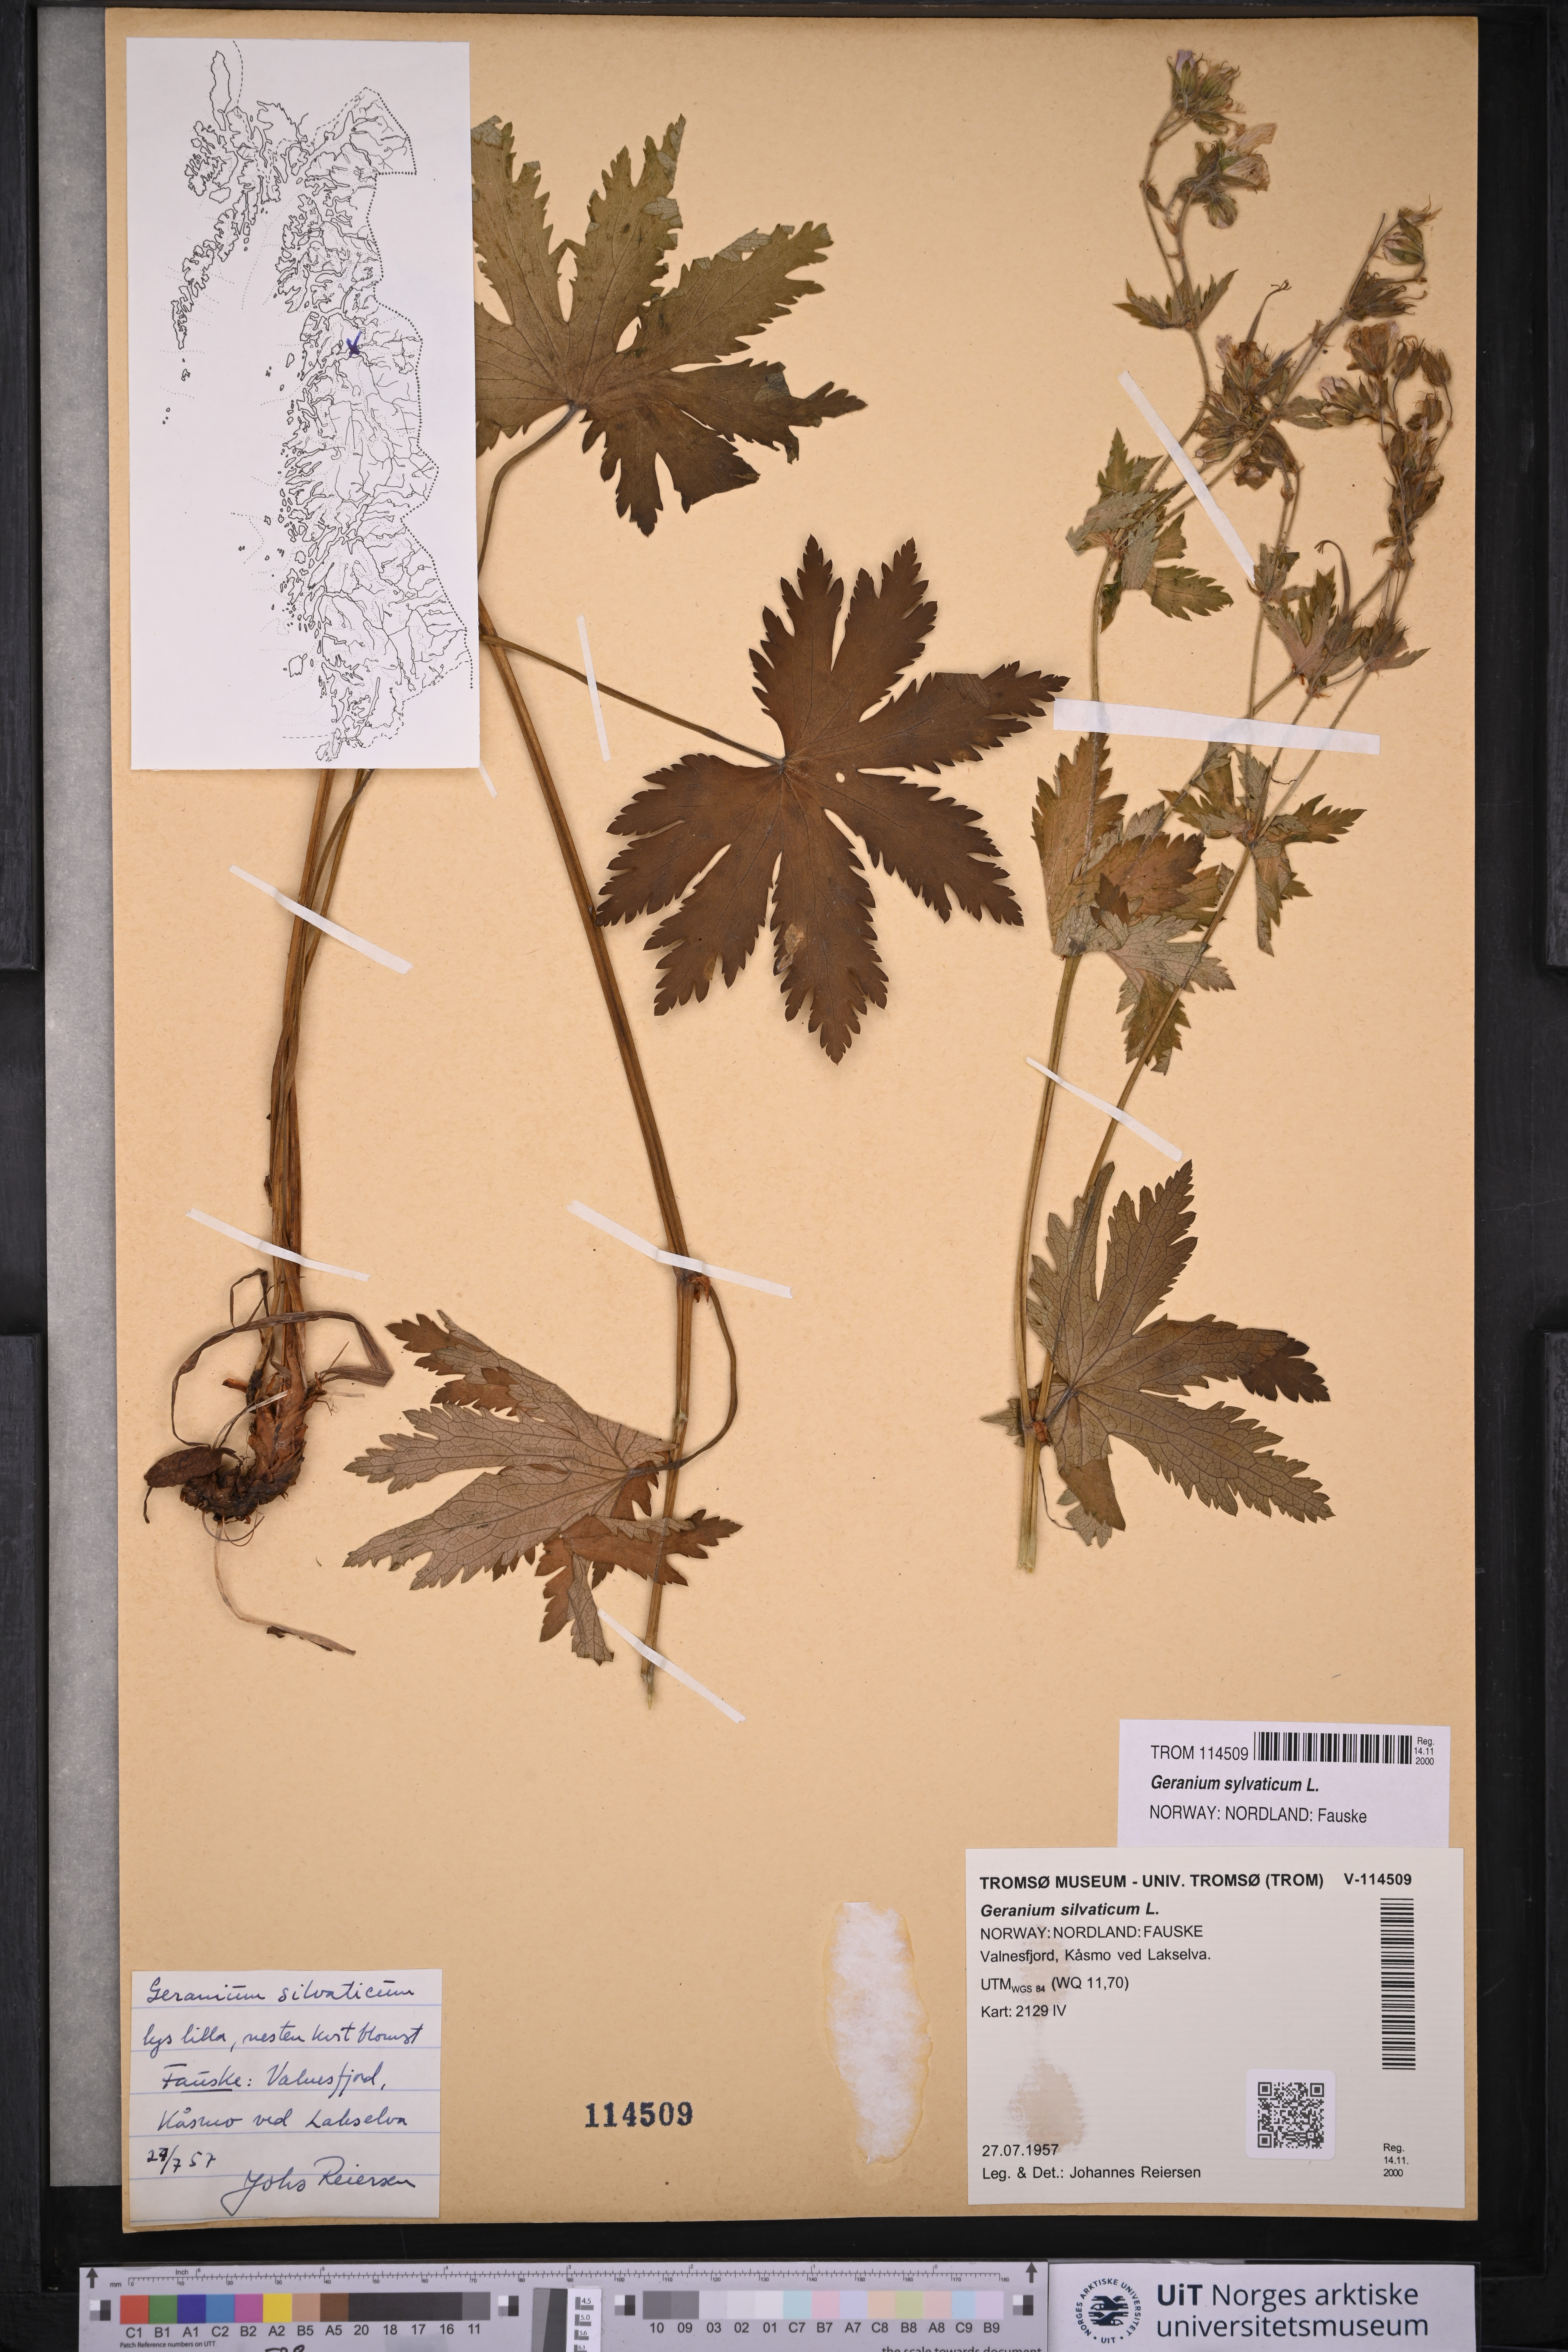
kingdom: Plantae
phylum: Tracheophyta
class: Magnoliopsida
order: Geraniales
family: Geraniaceae
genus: Geranium
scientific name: Geranium sylvaticum
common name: Wood crane's-bill
